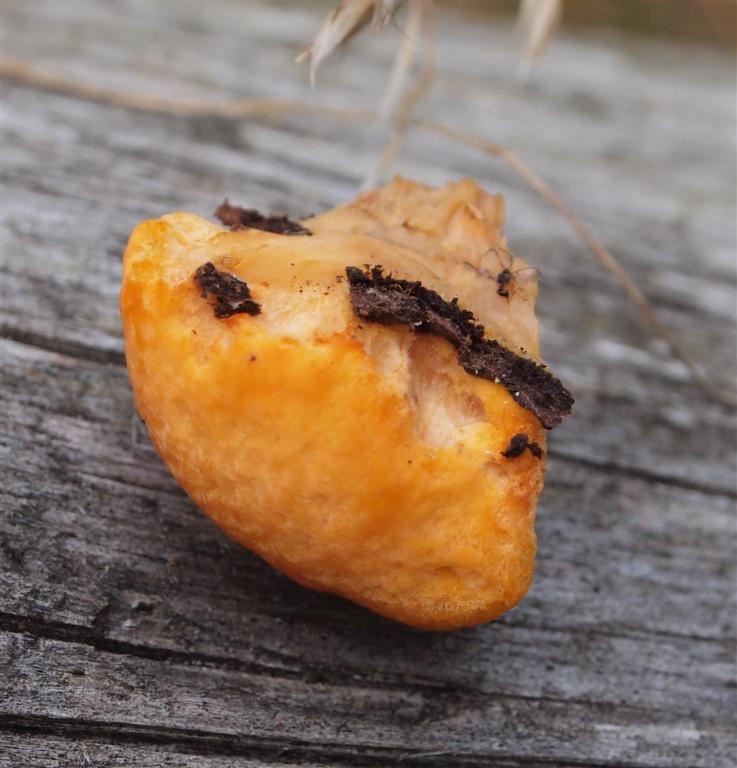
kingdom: Fungi
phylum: Basidiomycota
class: Agaricomycetes
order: Polyporales
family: Pycnoporellaceae
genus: Pycnoporellus
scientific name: Pycnoporellus fulgens
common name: flammeporesvamp
